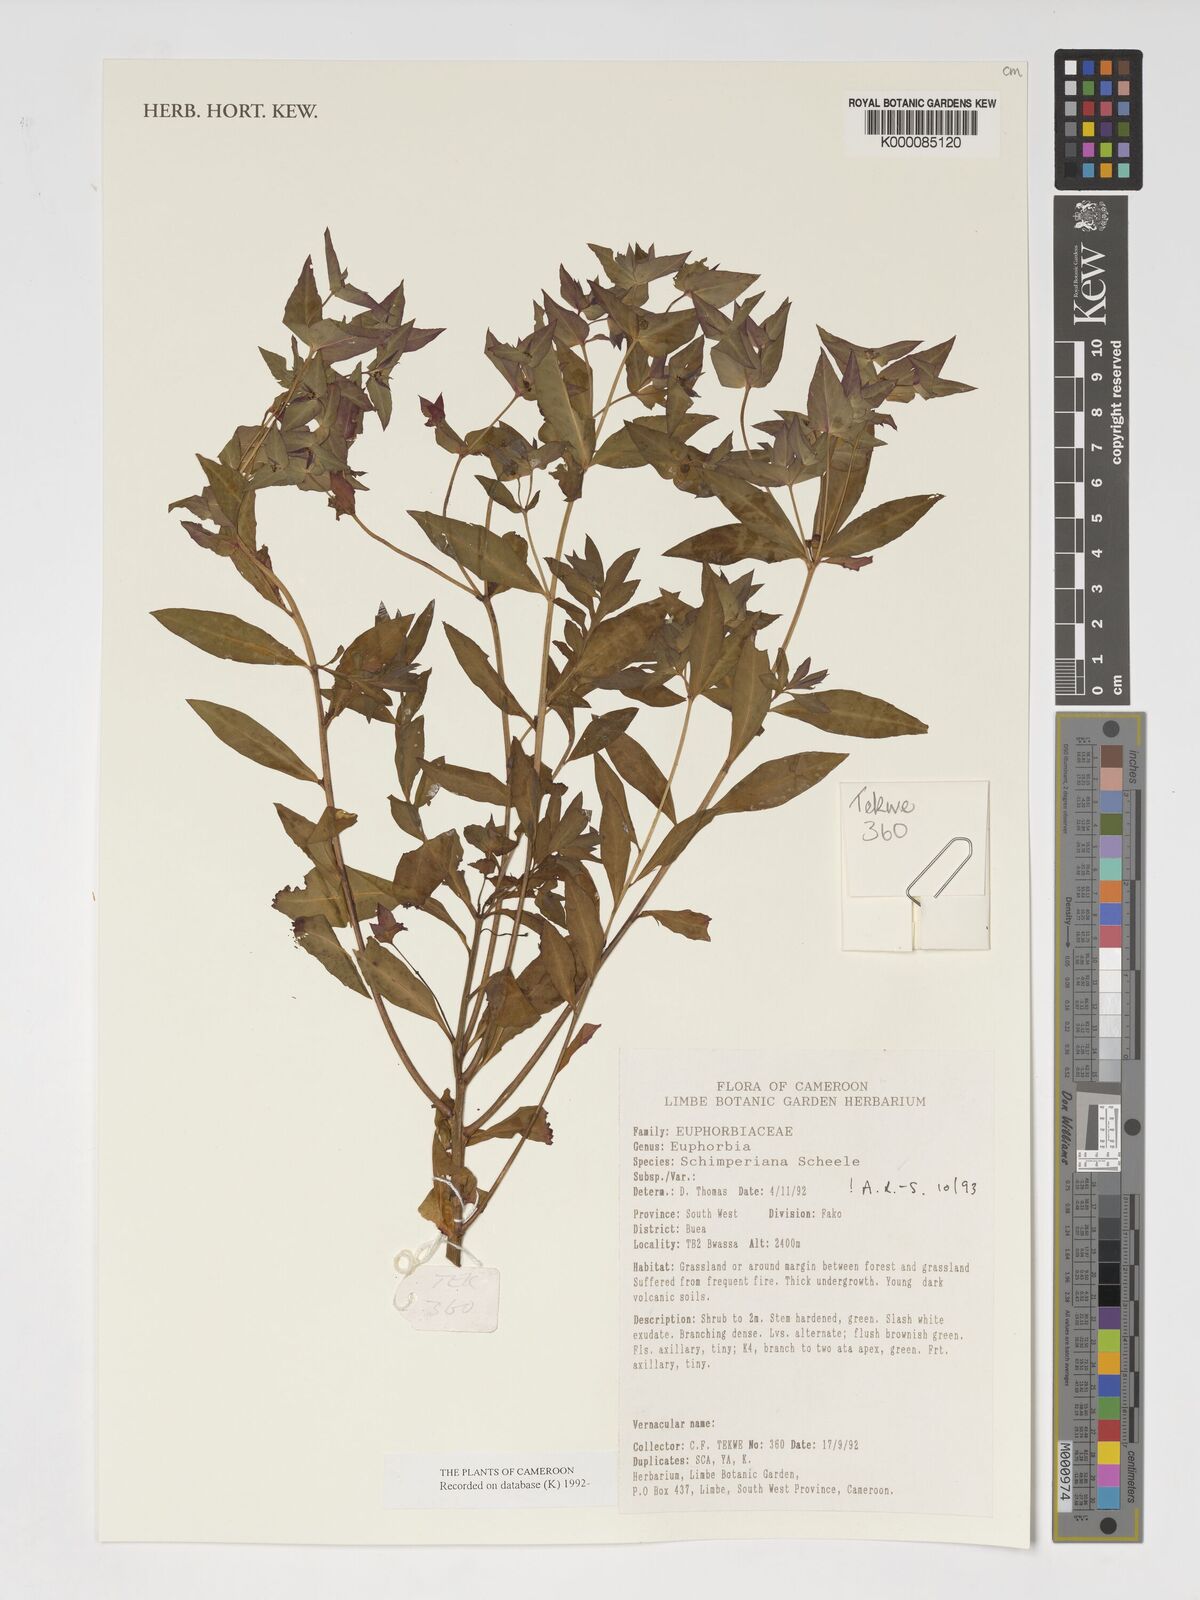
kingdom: Plantae
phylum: Tracheophyta
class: Magnoliopsida
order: Malpighiales
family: Euphorbiaceae
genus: Euphorbia
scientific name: Euphorbia schimperiana
